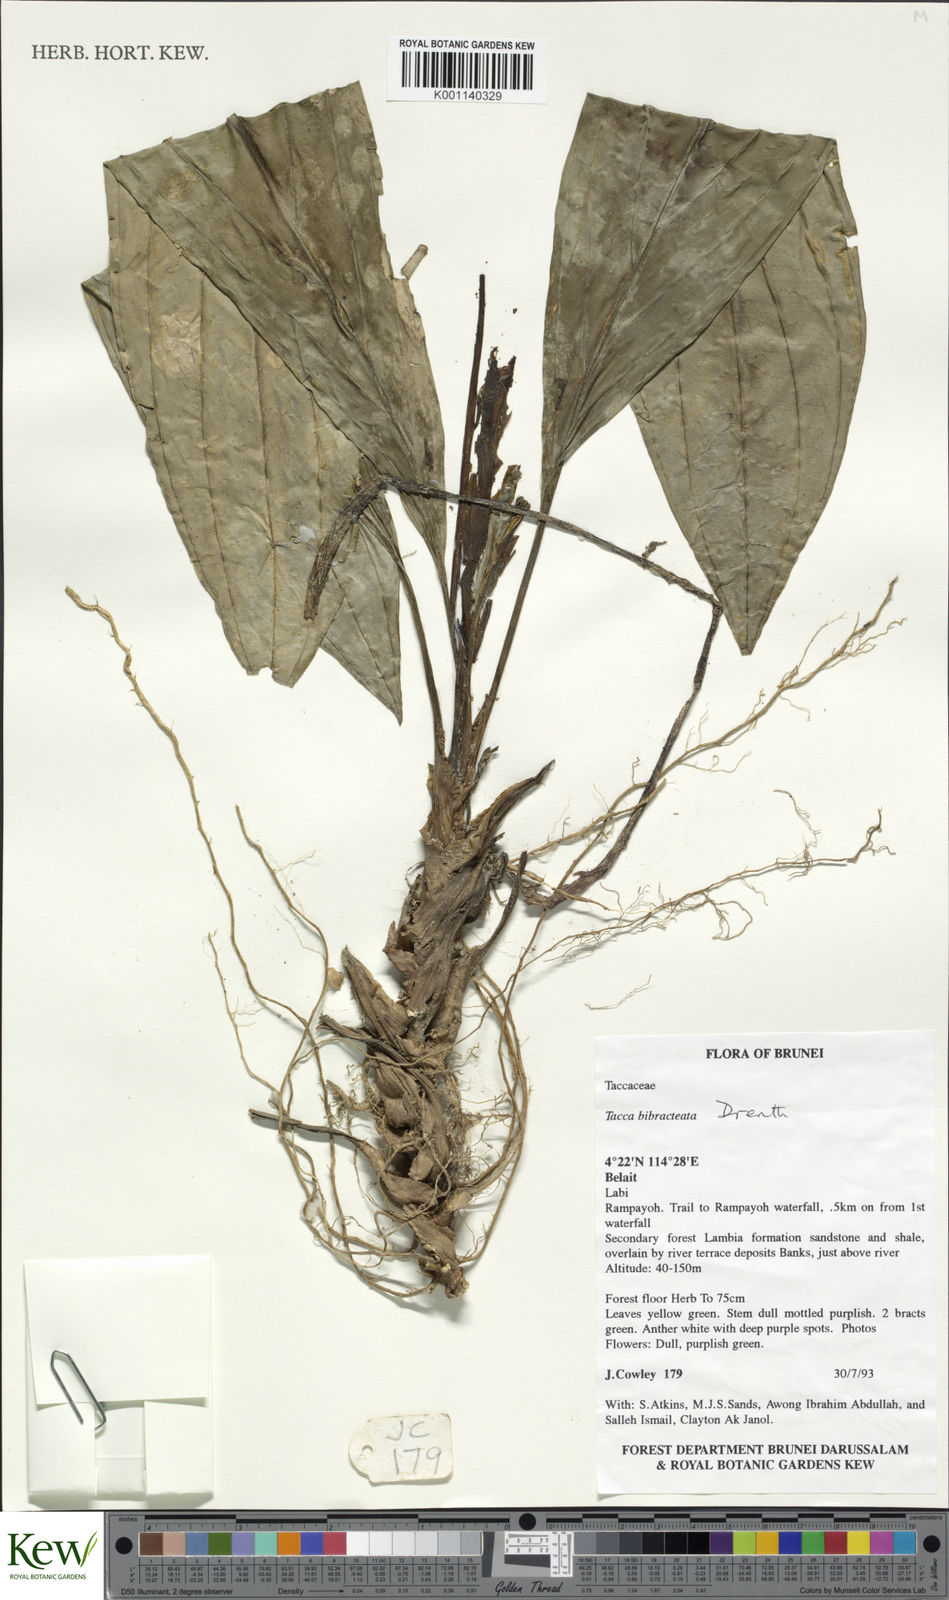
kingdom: Plantae
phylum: Tracheophyta
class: Liliopsida
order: Dioscoreales
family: Dioscoreaceae
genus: Tacca
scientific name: Tacca bibracteata
